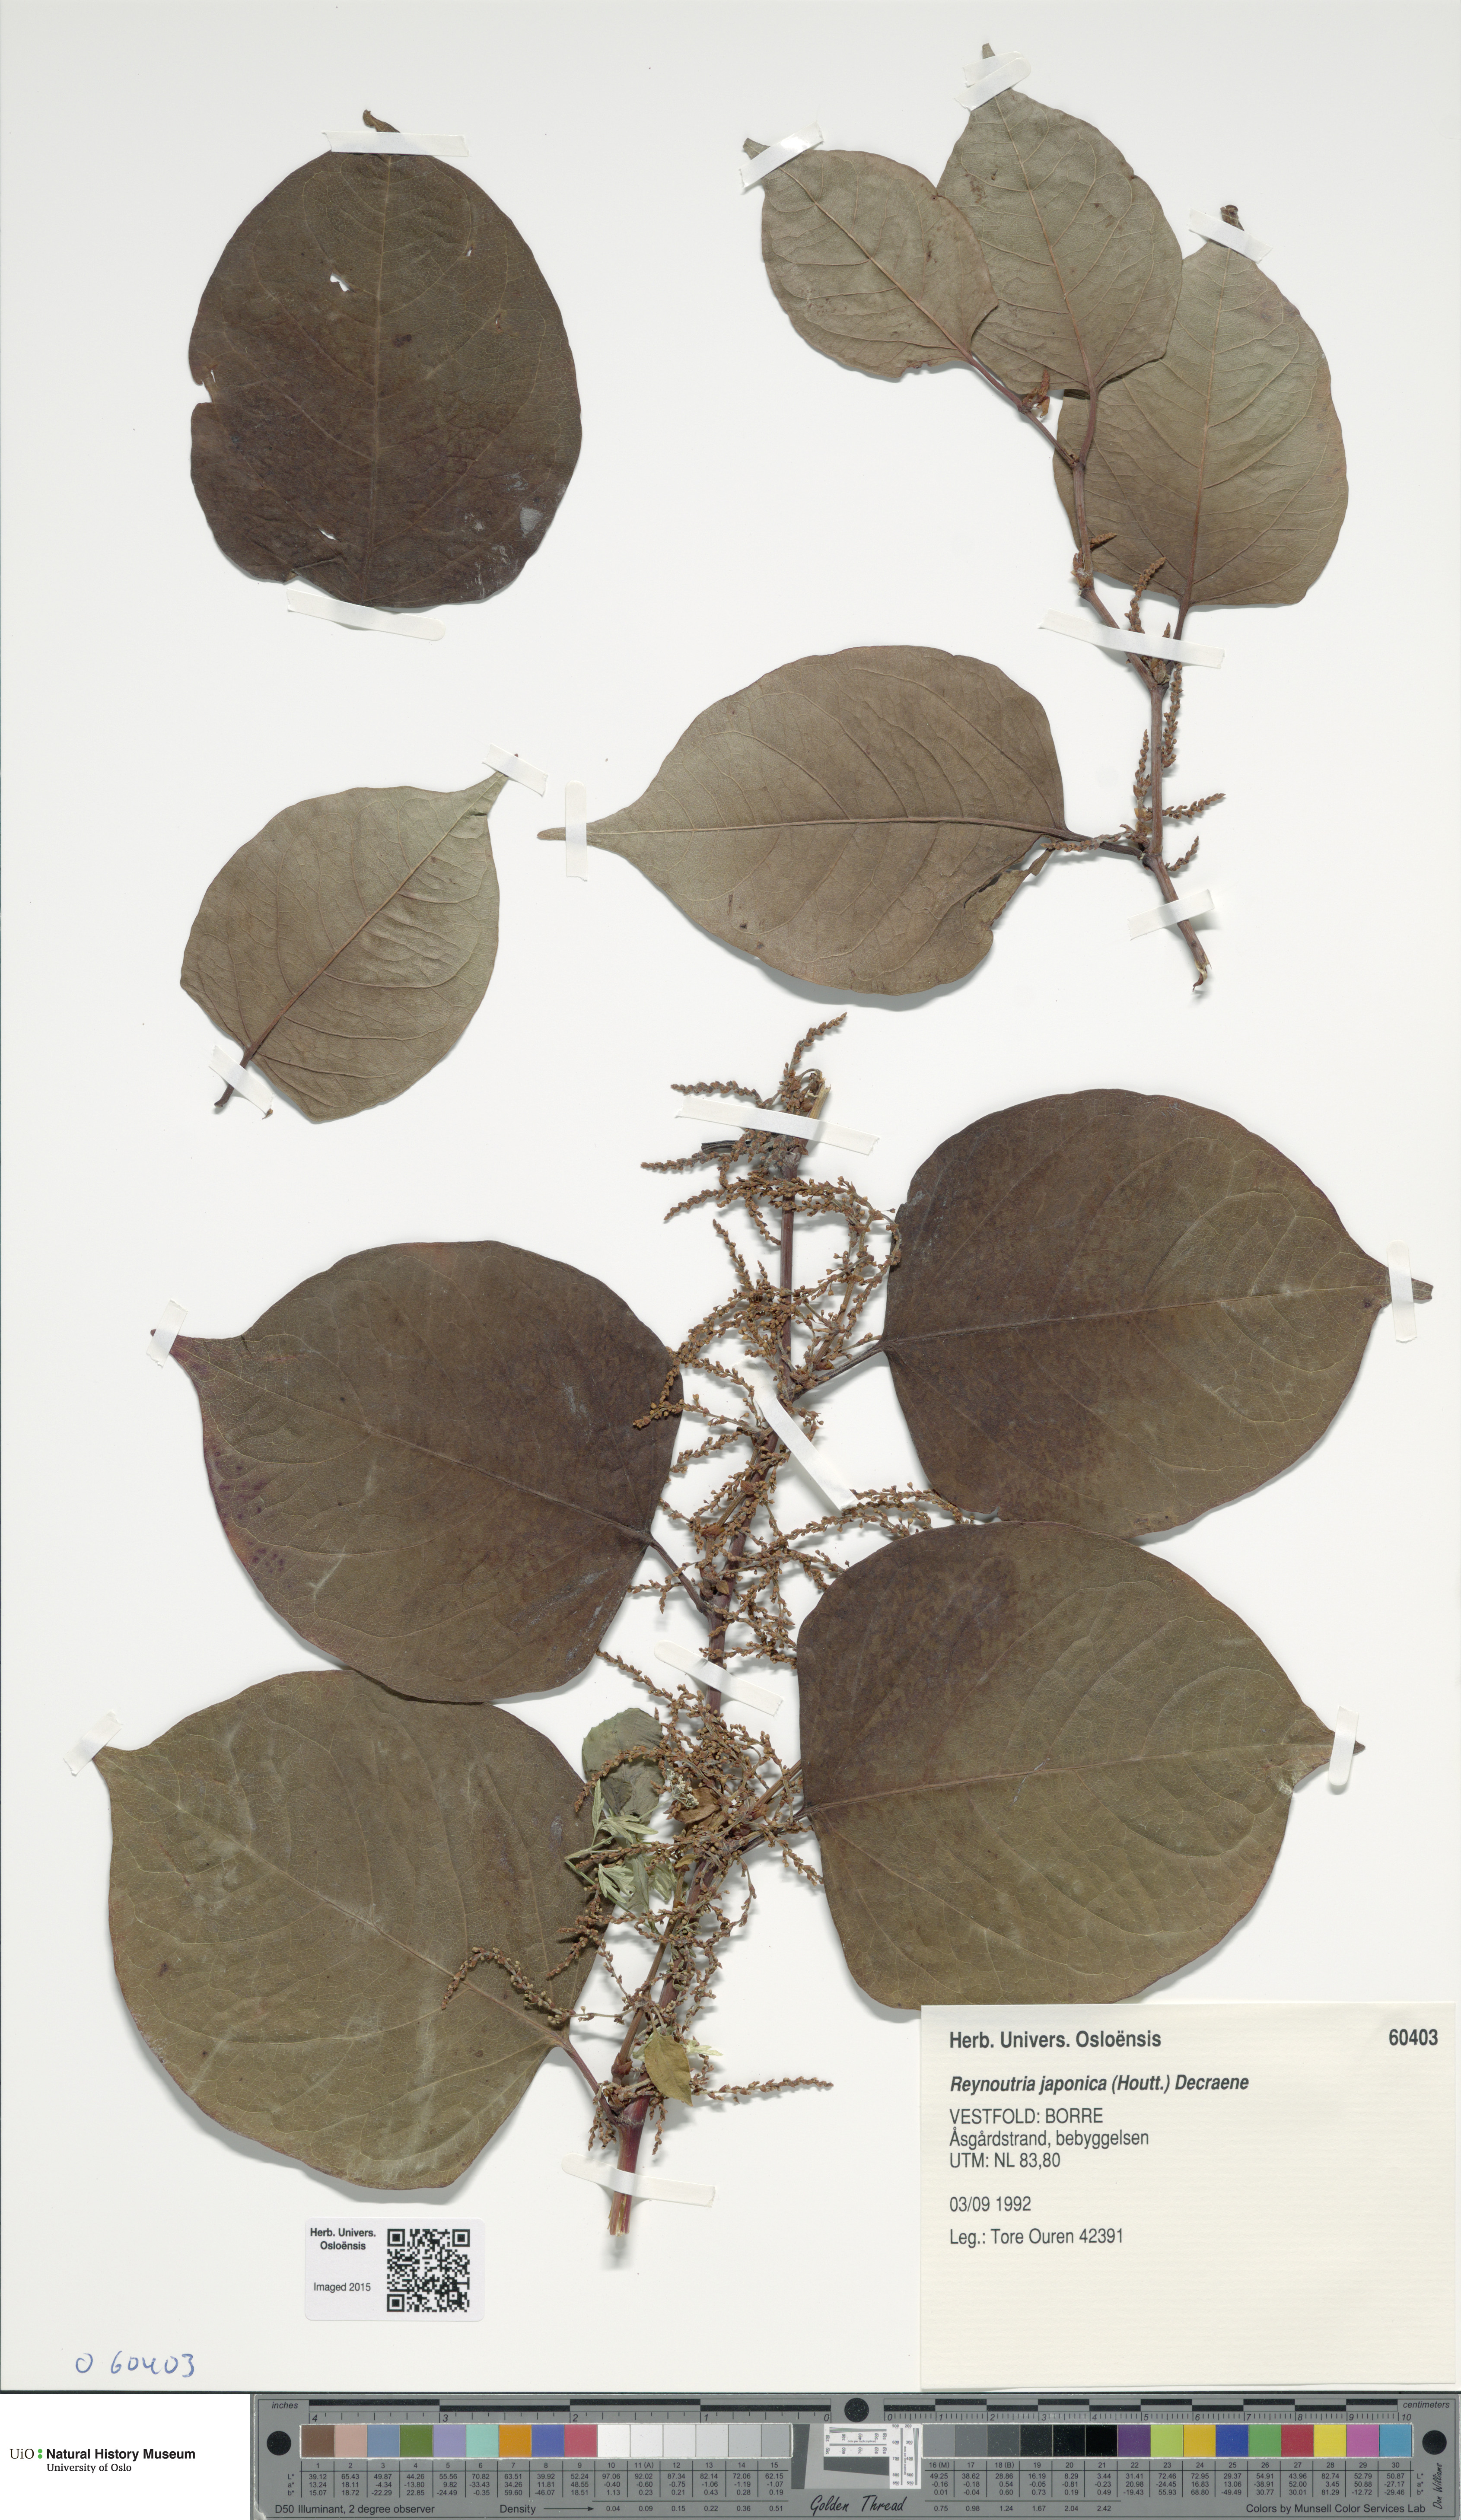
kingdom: Plantae
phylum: Tracheophyta
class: Magnoliopsida
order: Caryophyllales
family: Polygonaceae
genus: Reynoutria
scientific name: Reynoutria japonica
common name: Japanese knotweed
